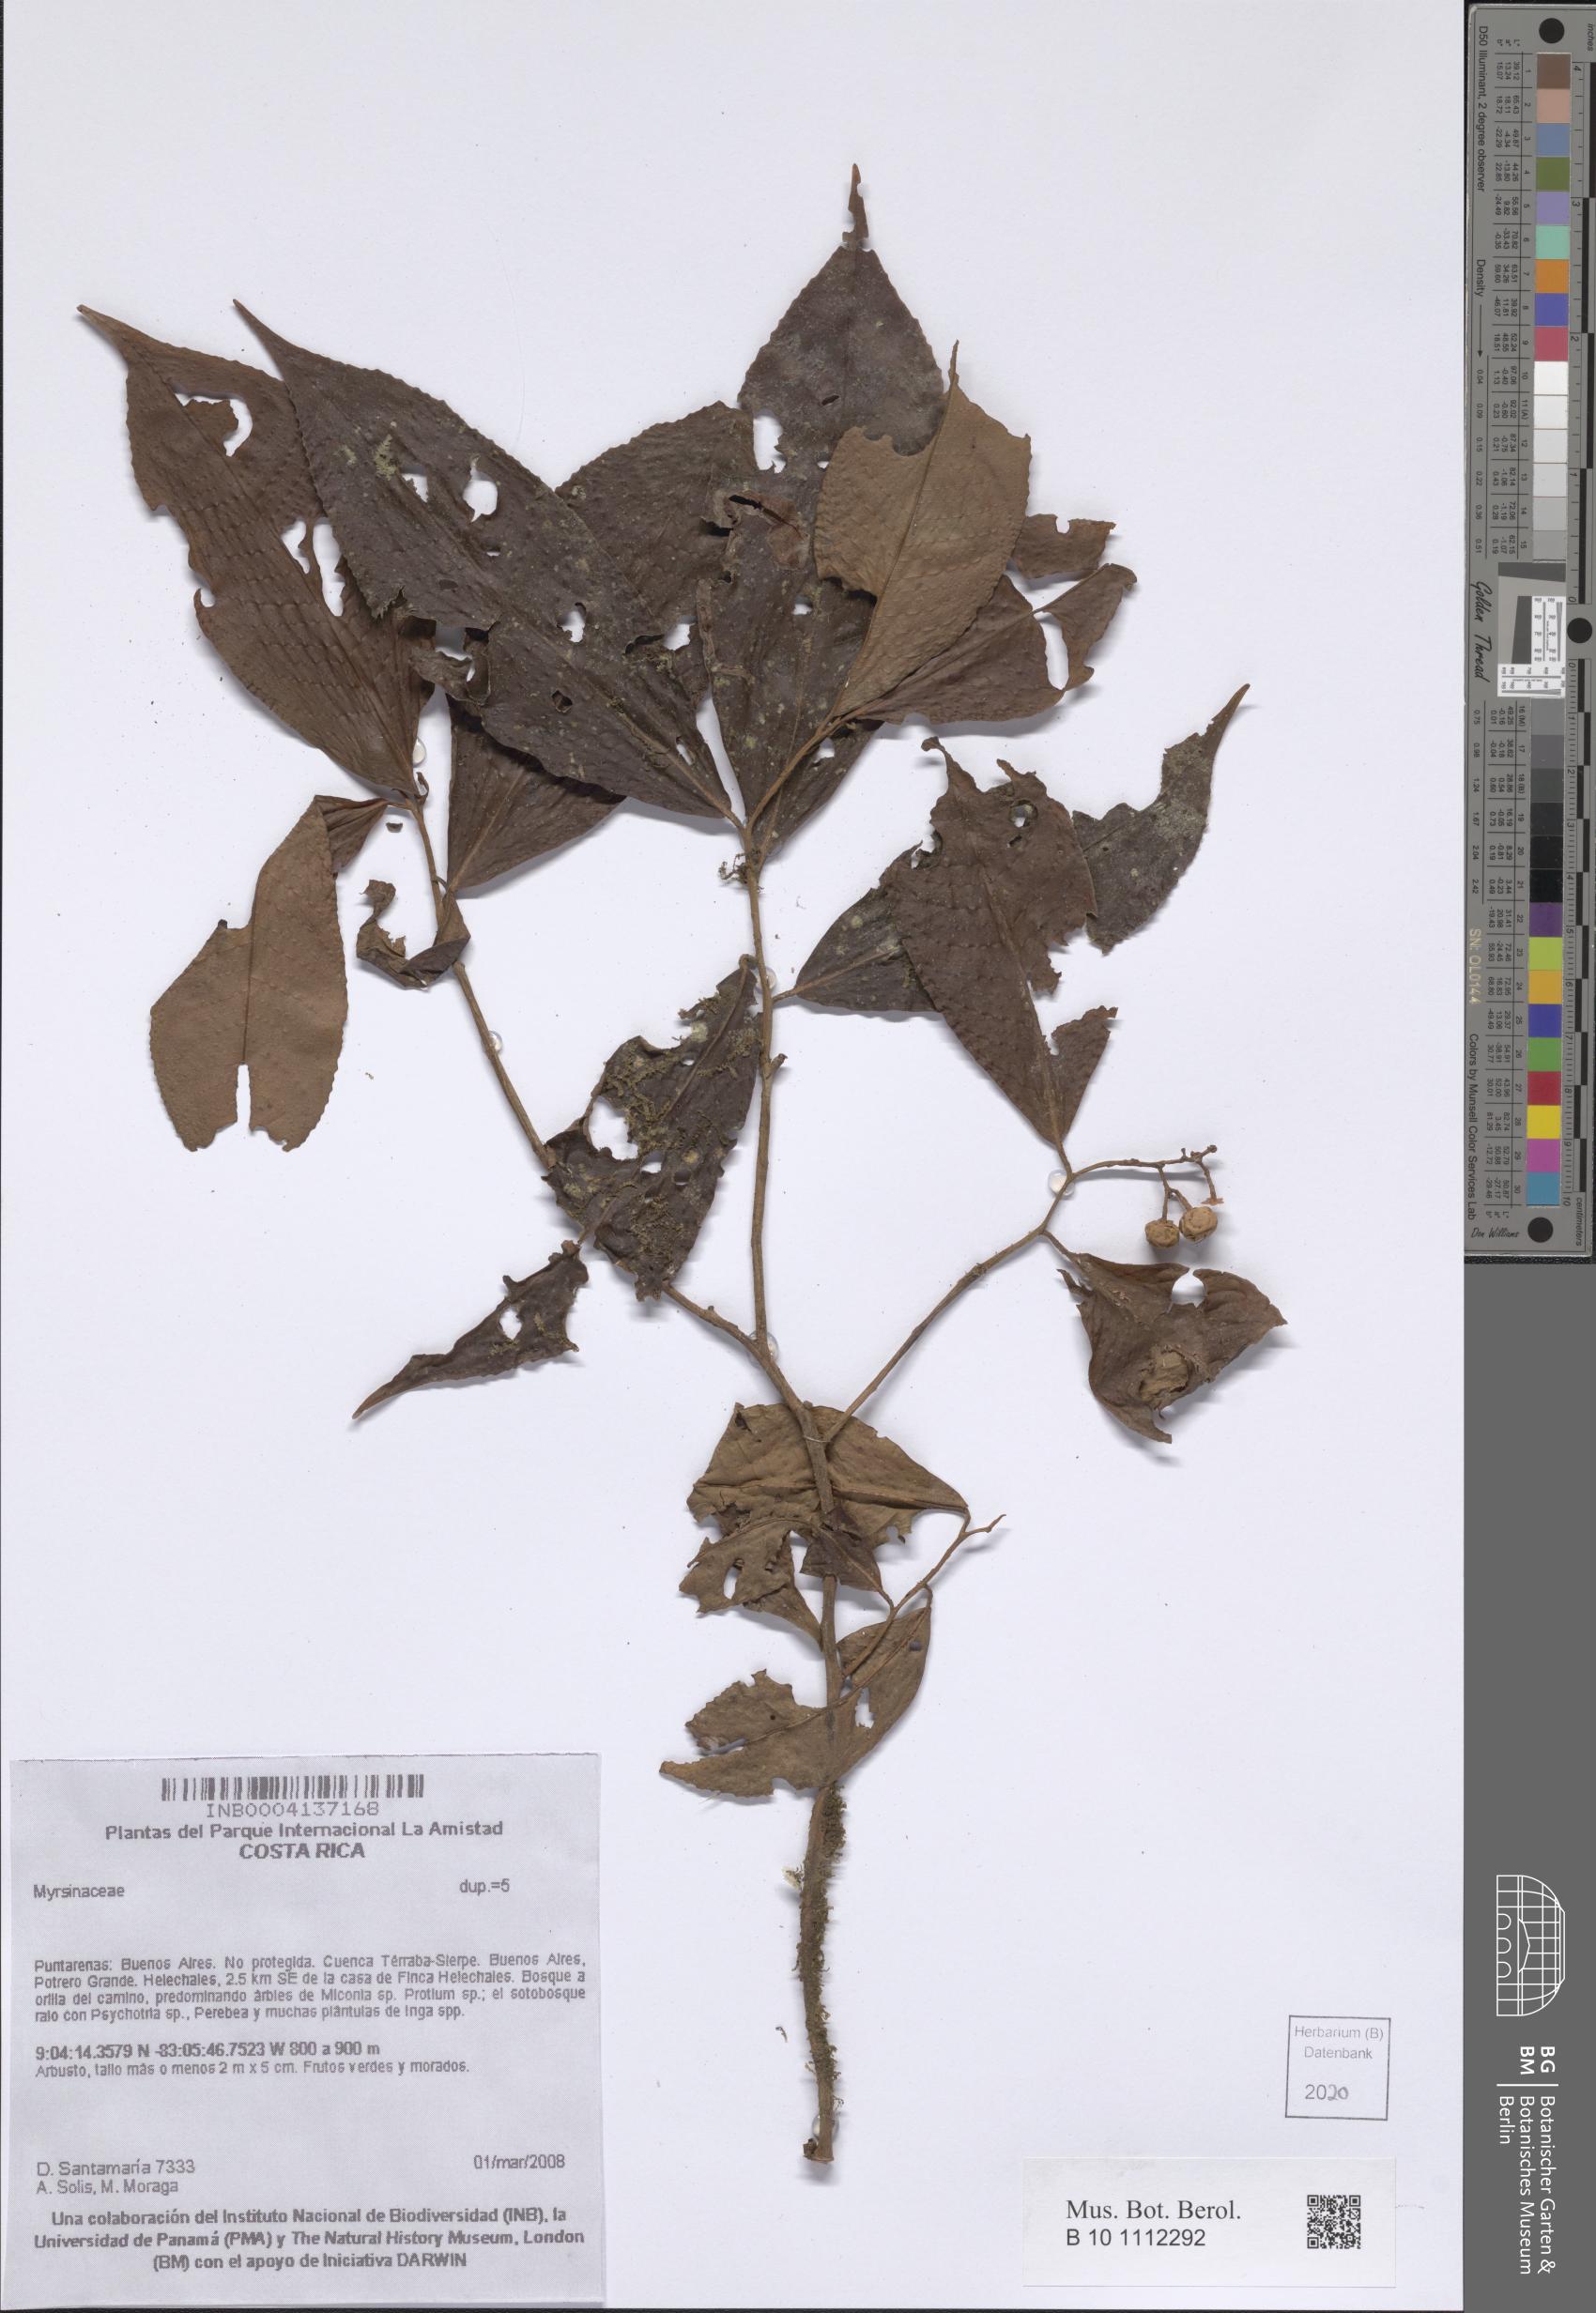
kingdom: Plantae
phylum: Tracheophyta
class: Magnoliopsida
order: Ericales
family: Primulaceae
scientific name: Primulaceae
